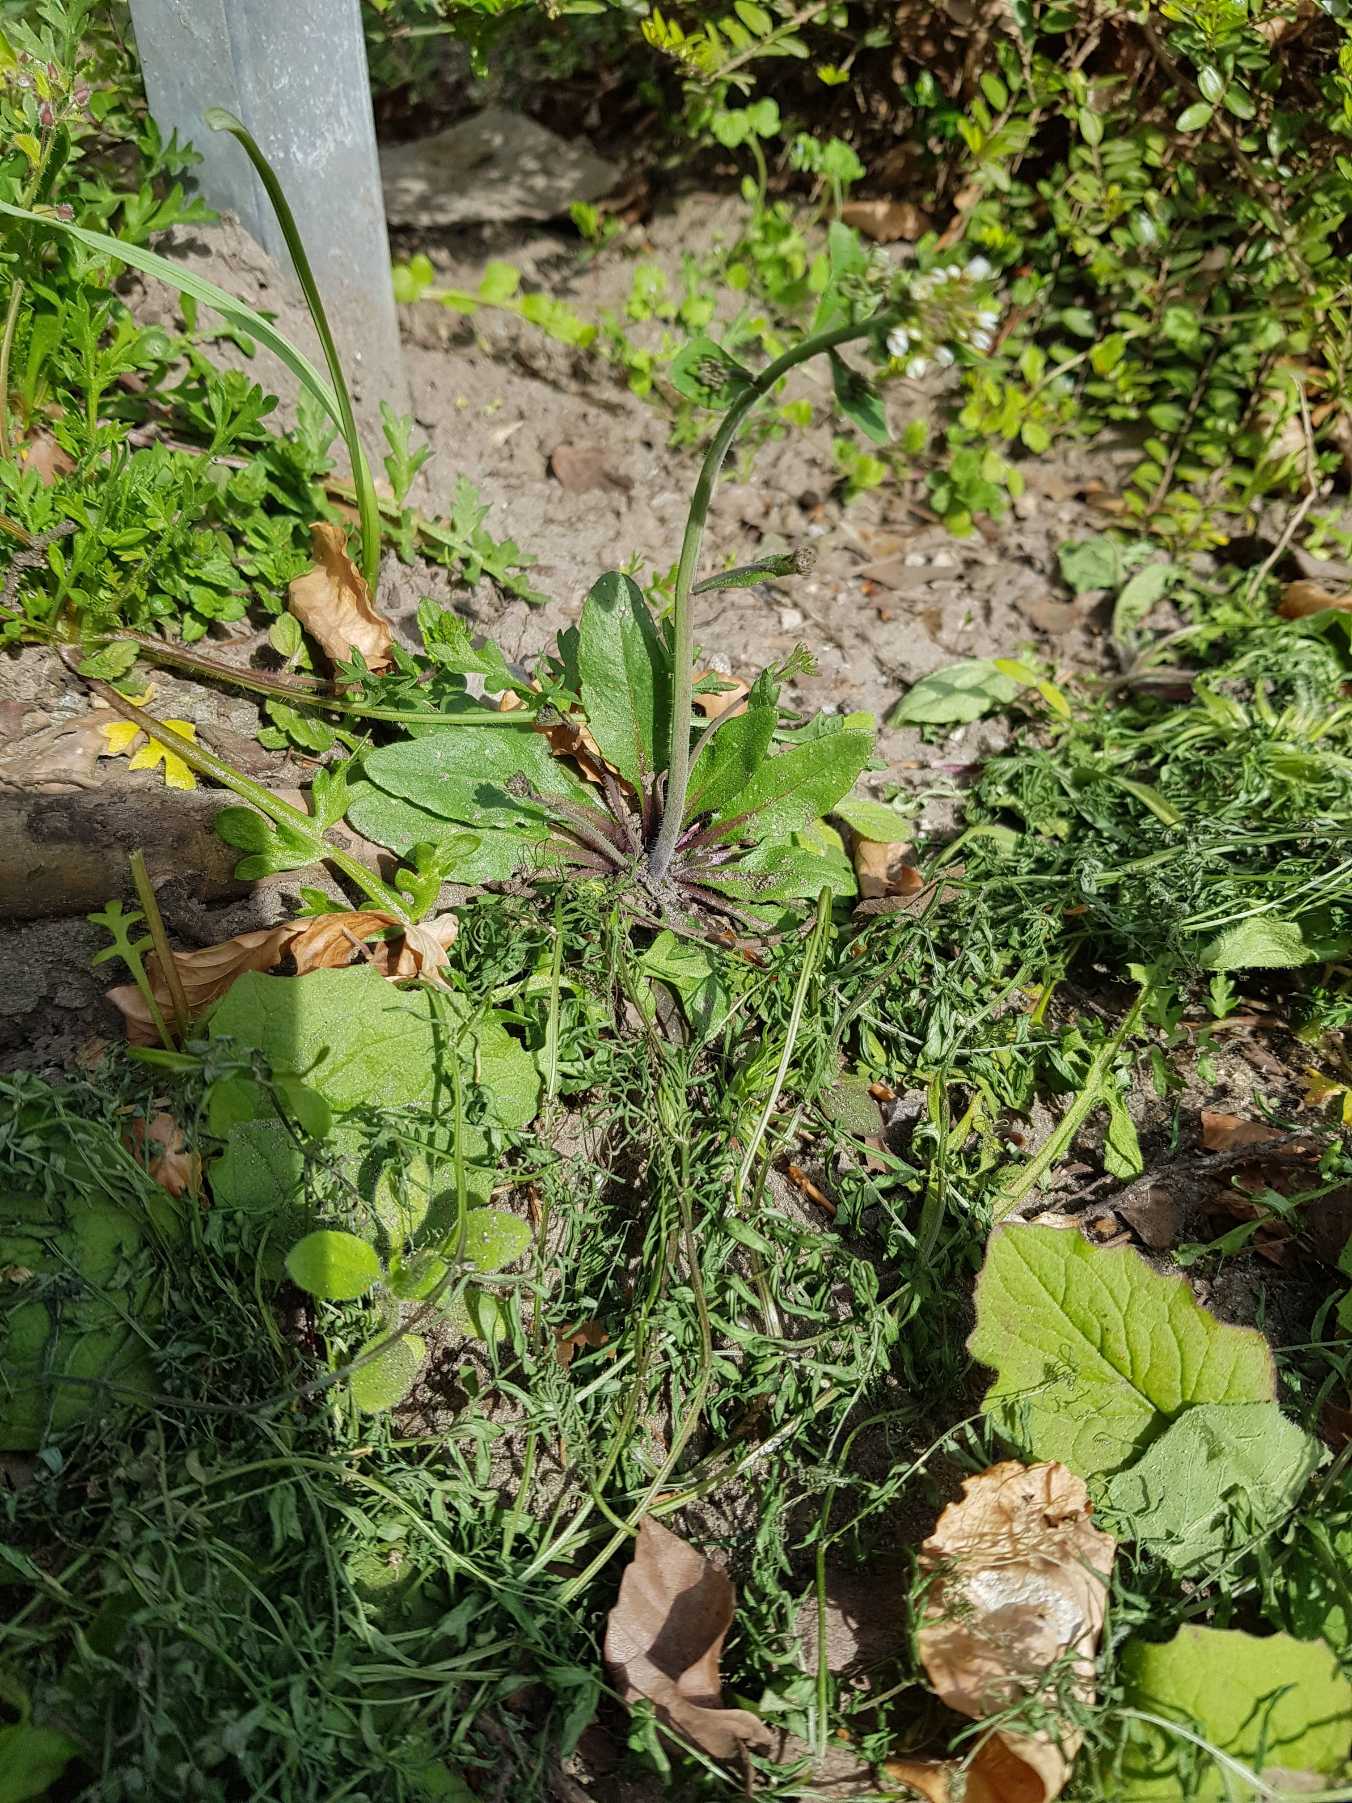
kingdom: Plantae
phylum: Tracheophyta
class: Magnoliopsida
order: Brassicales
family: Brassicaceae
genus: Arabidopsis
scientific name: Arabidopsis thaliana
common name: Almindelig gåsemad
